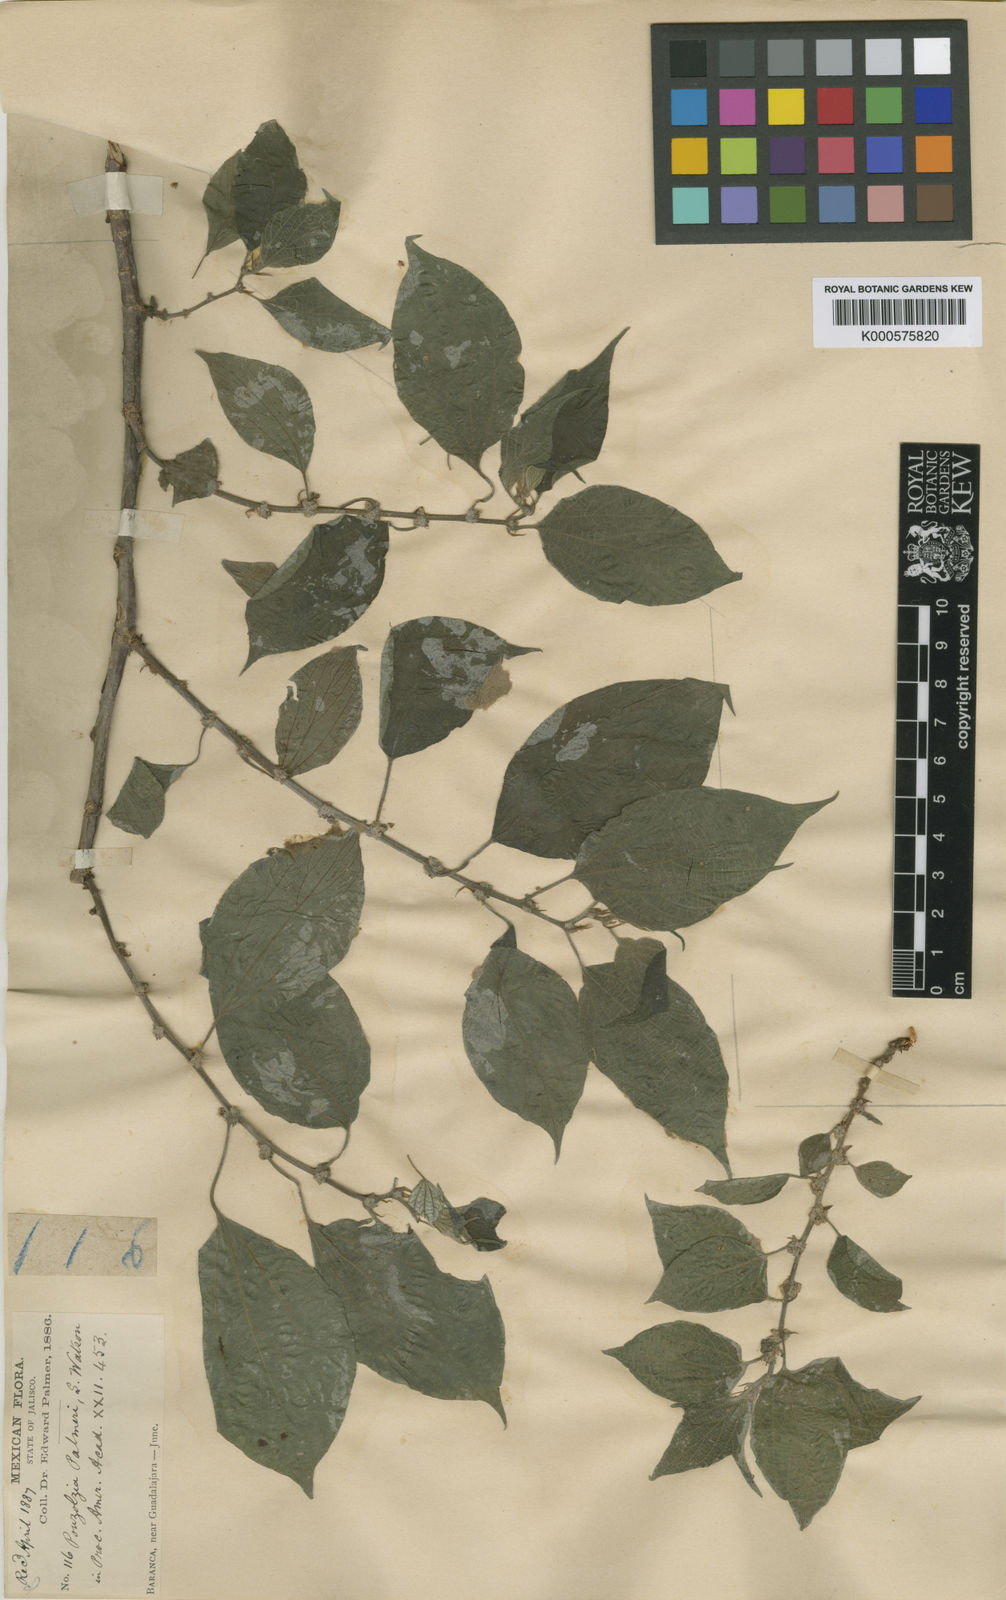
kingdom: Plantae
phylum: Tracheophyta
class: Magnoliopsida
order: Rosales
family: Urticaceae
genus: Pouzolzia
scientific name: Pouzolzia occidentalis
